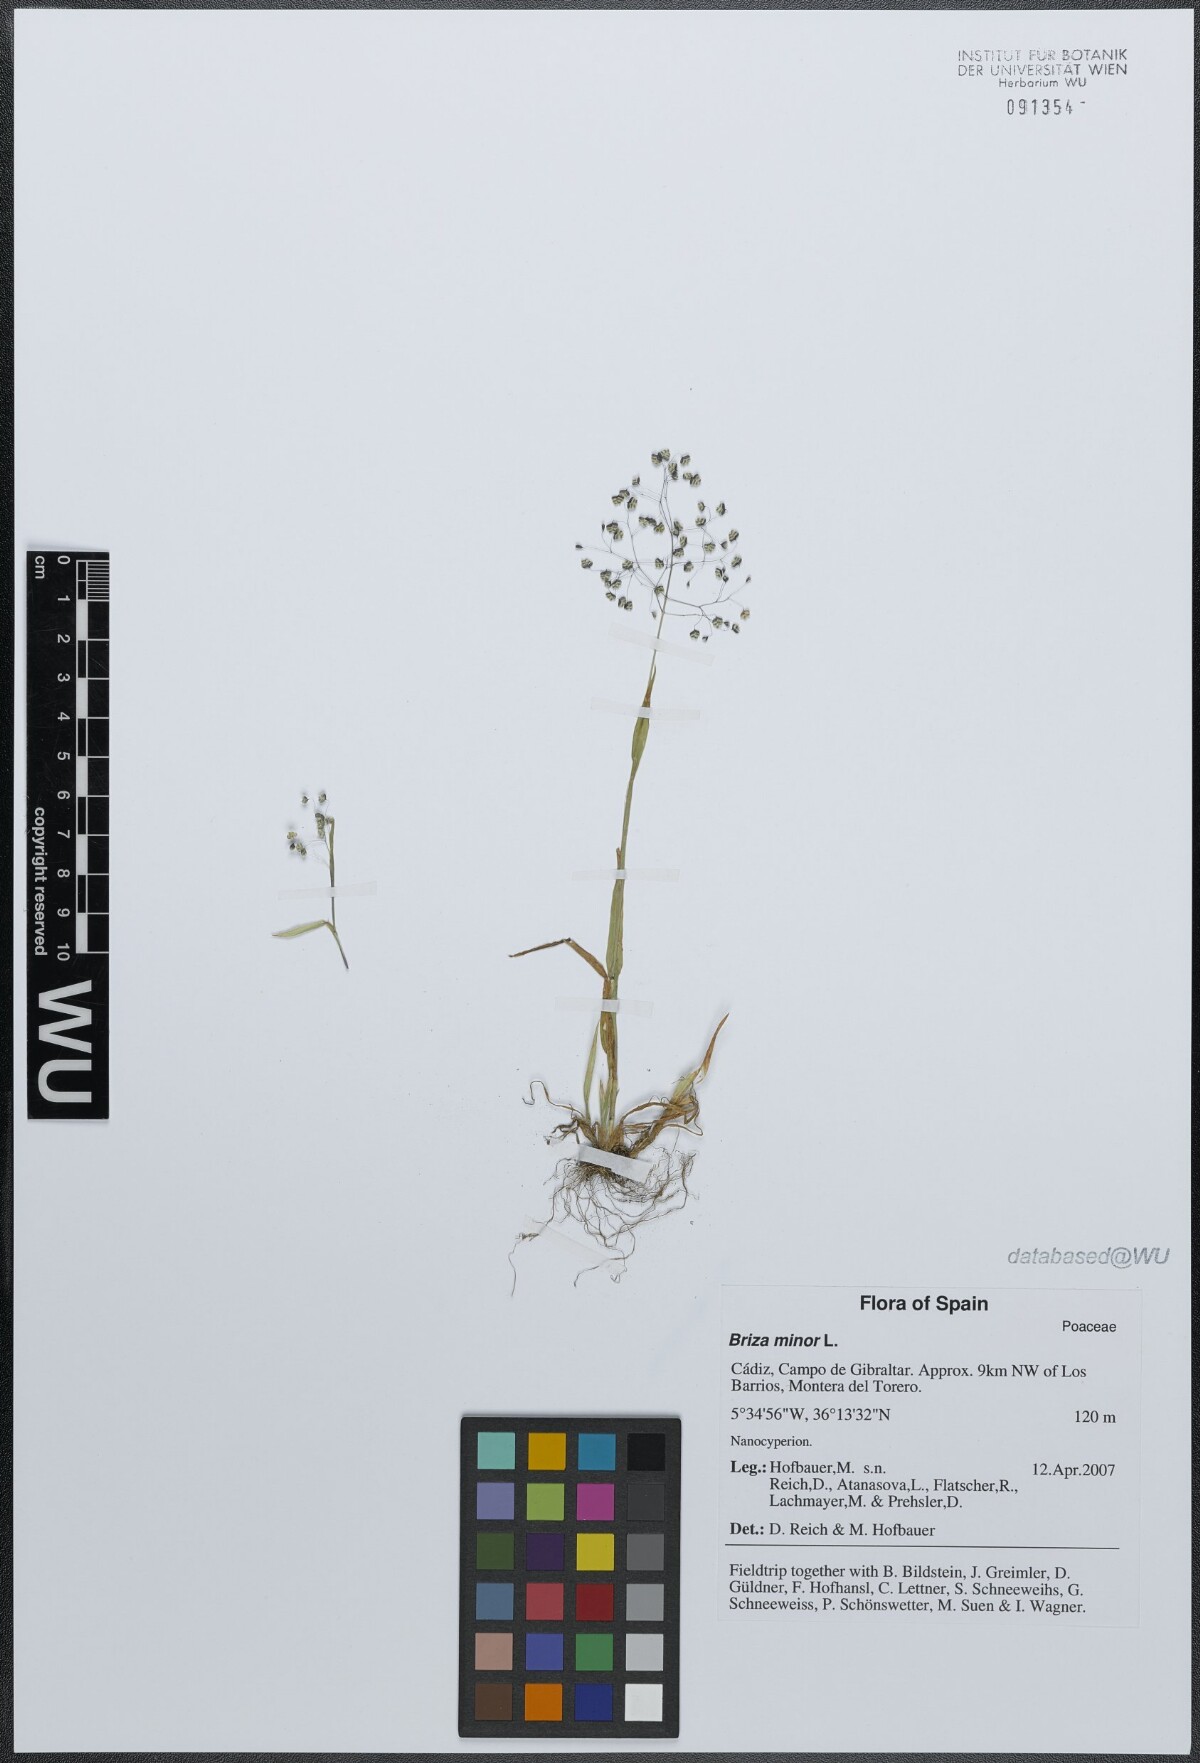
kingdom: Plantae
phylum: Tracheophyta
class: Liliopsida
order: Poales
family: Poaceae
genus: Briza
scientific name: Briza minor
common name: Lesser quaking-grass
